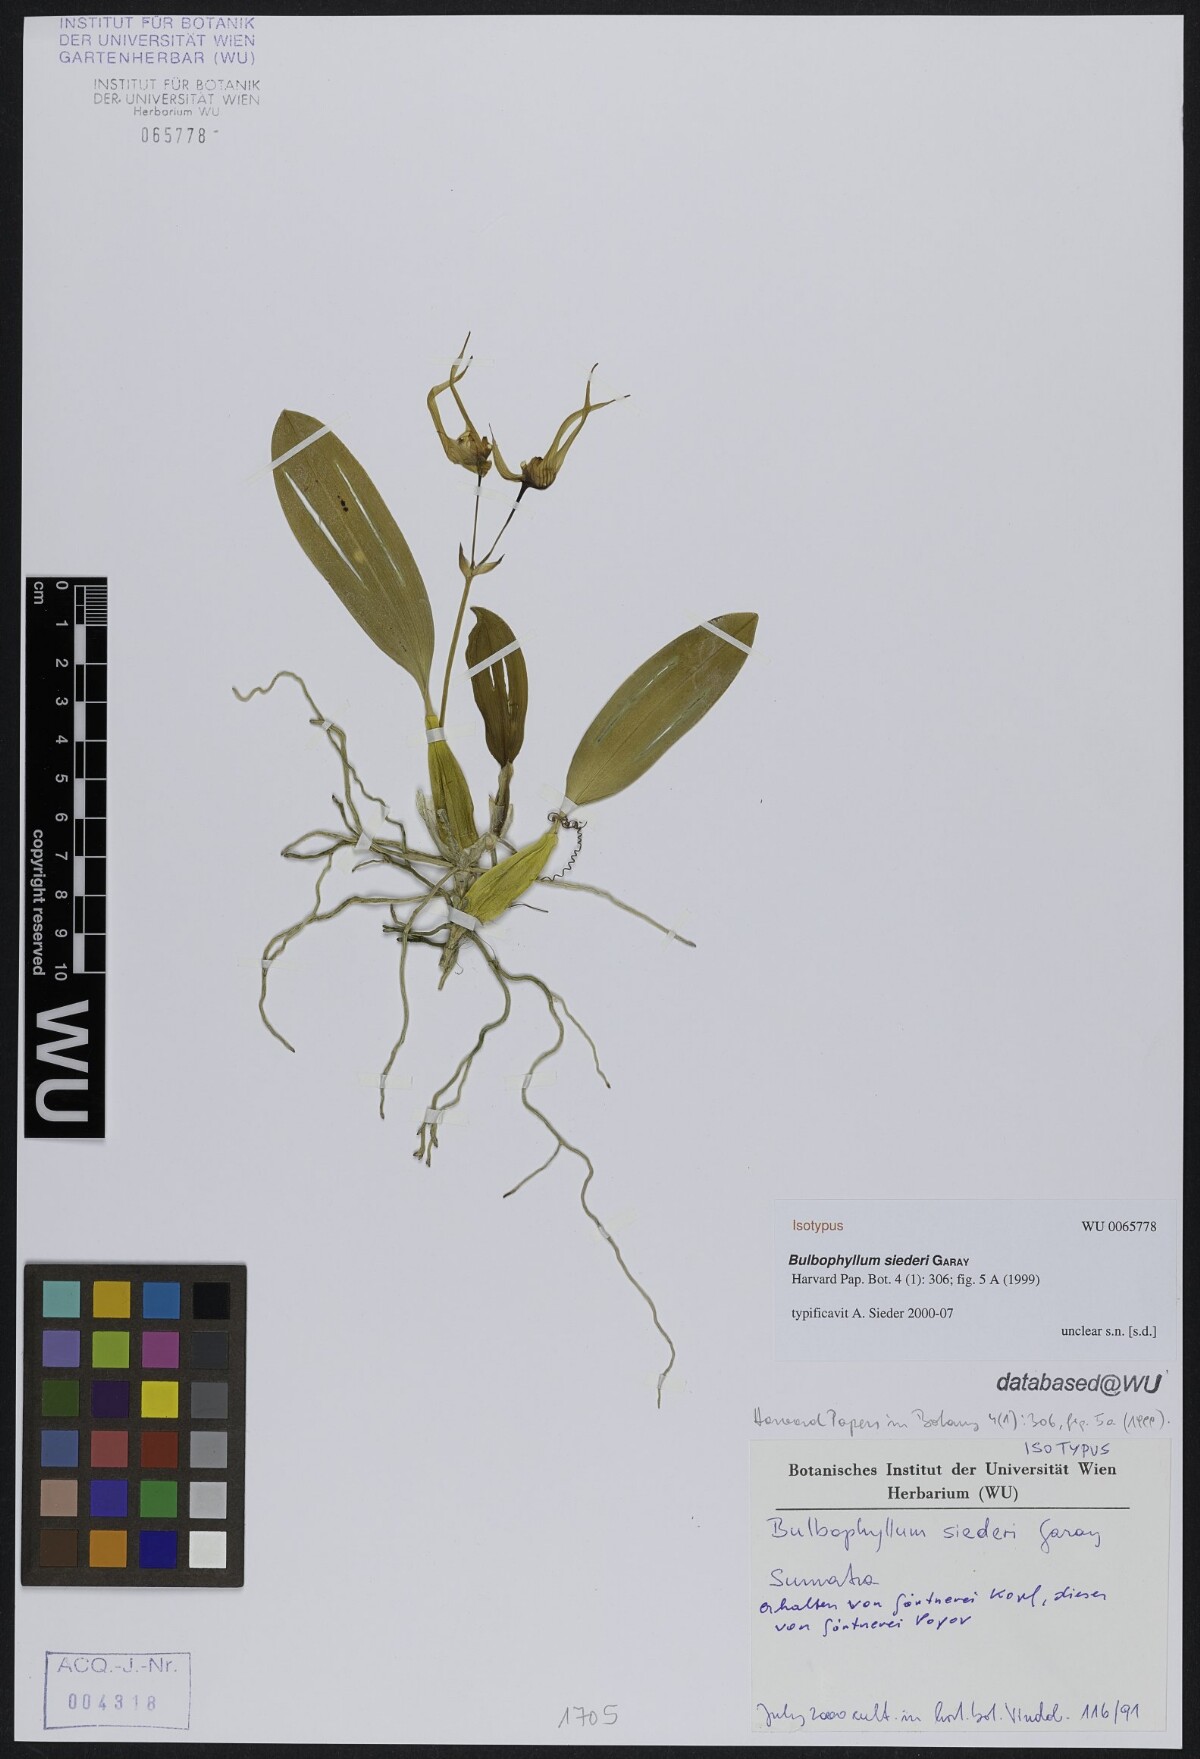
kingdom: Plantae
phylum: Tracheophyta
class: Liliopsida
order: Asparagales
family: Orchidaceae
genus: Bulbophyllum
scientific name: Bulbophyllum siederi
